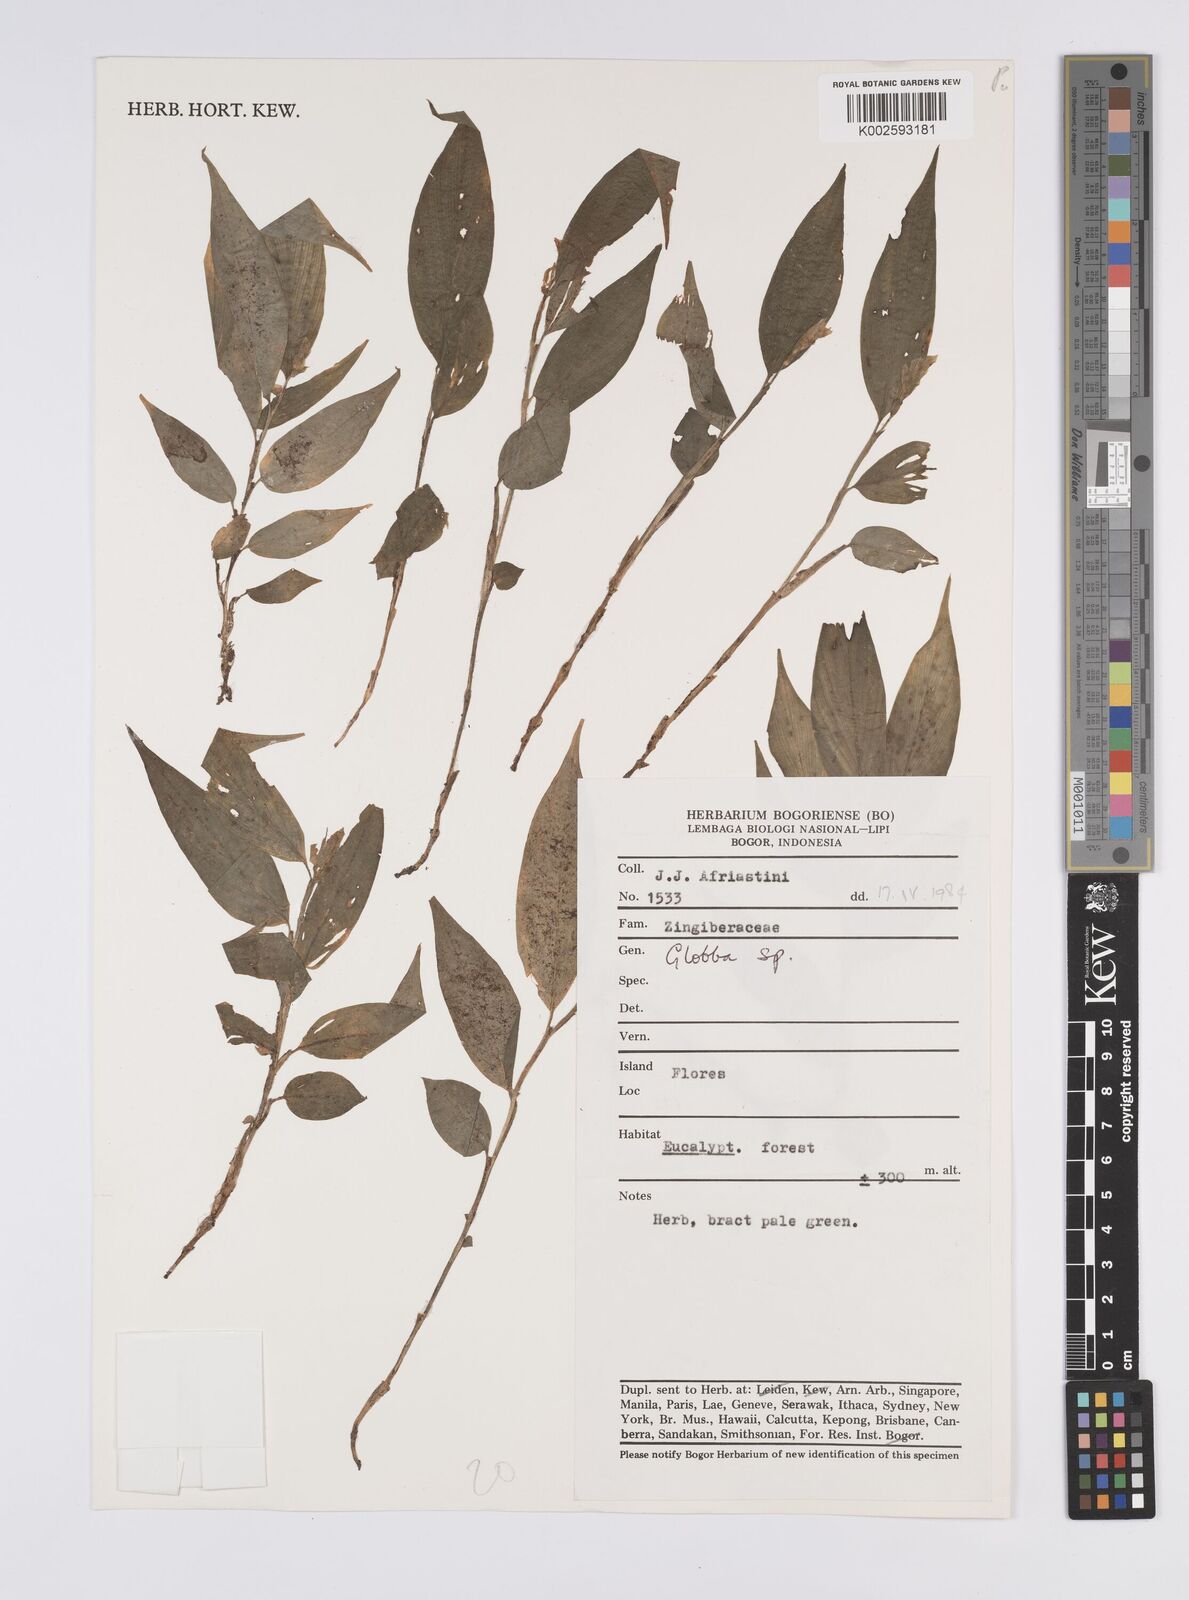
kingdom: Plantae
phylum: Tracheophyta
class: Liliopsida
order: Zingiberales
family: Zingiberaceae
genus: Globba
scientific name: Globba
